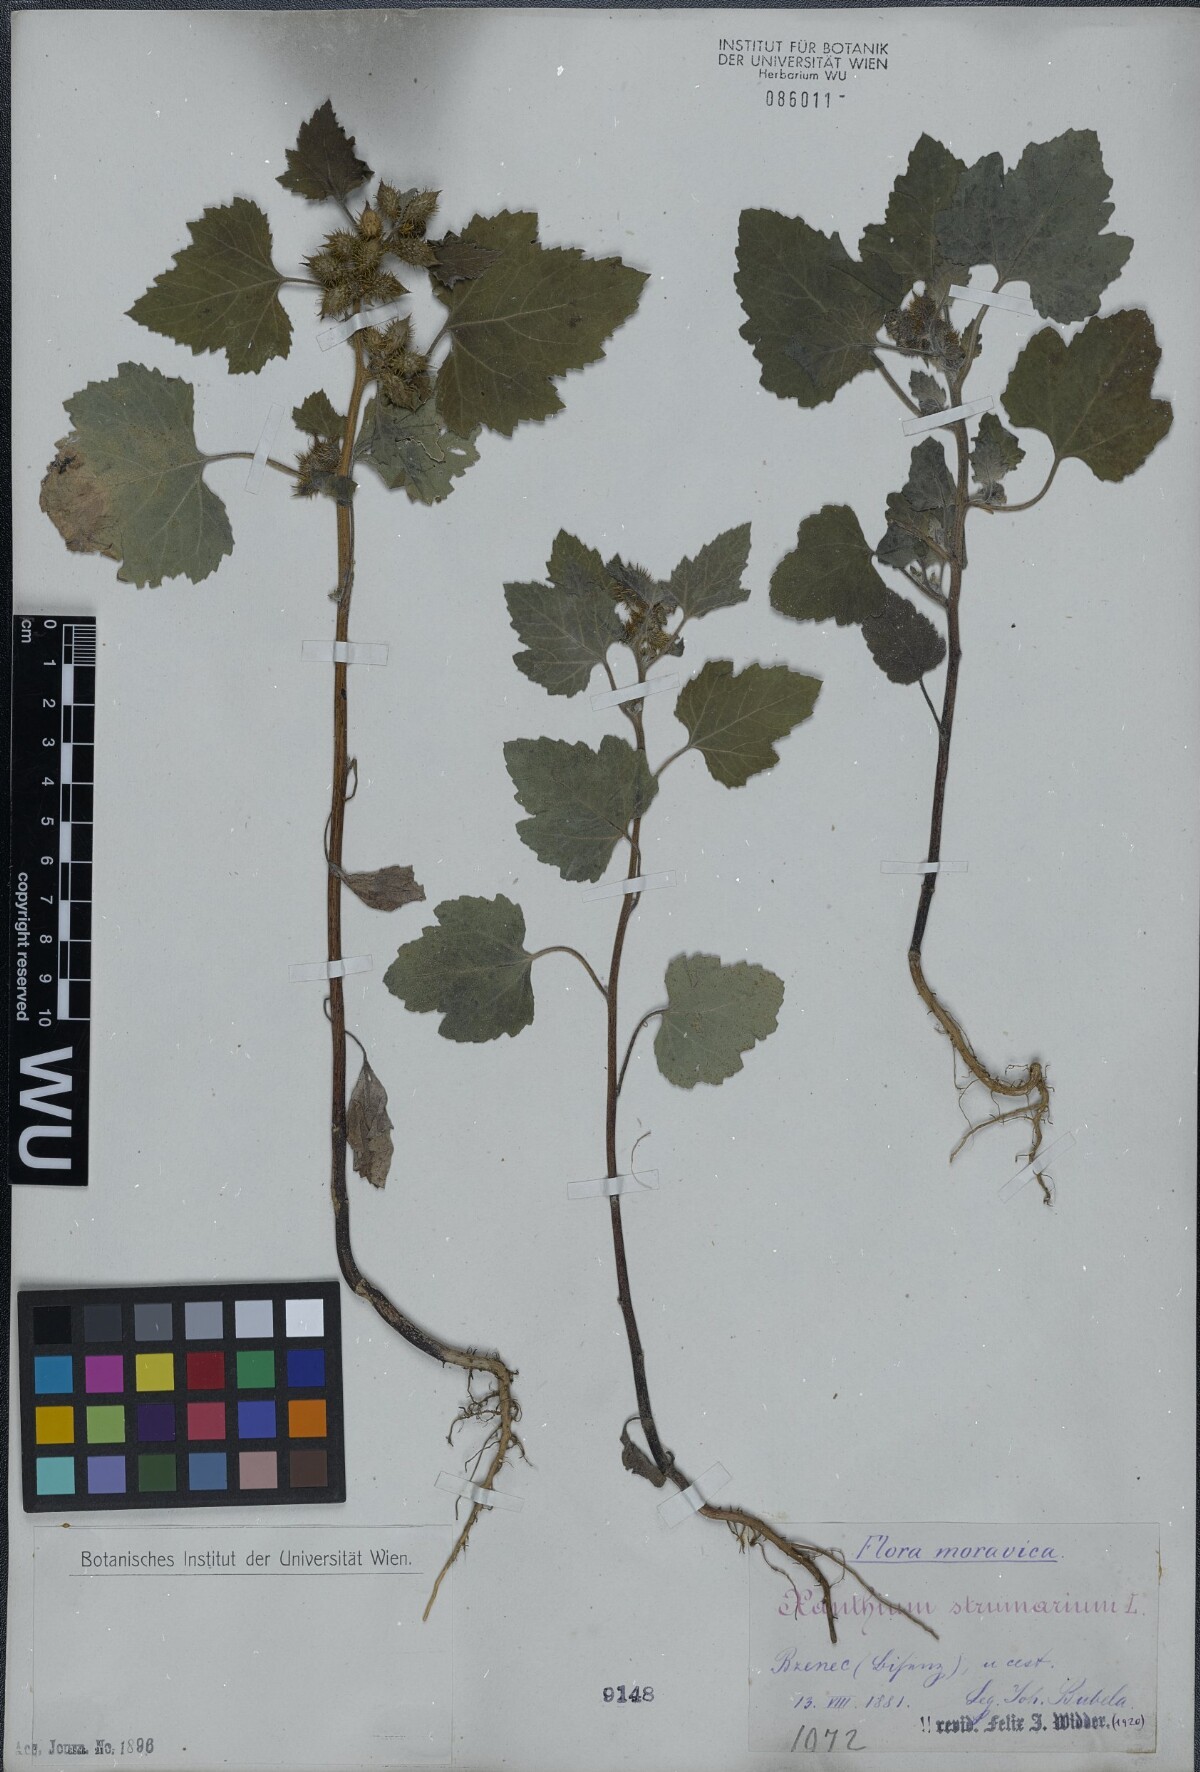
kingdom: Plantae
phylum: Tracheophyta
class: Magnoliopsida
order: Asterales
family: Asteraceae
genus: Xanthium
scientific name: Xanthium strumarium
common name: Rough cocklebur
